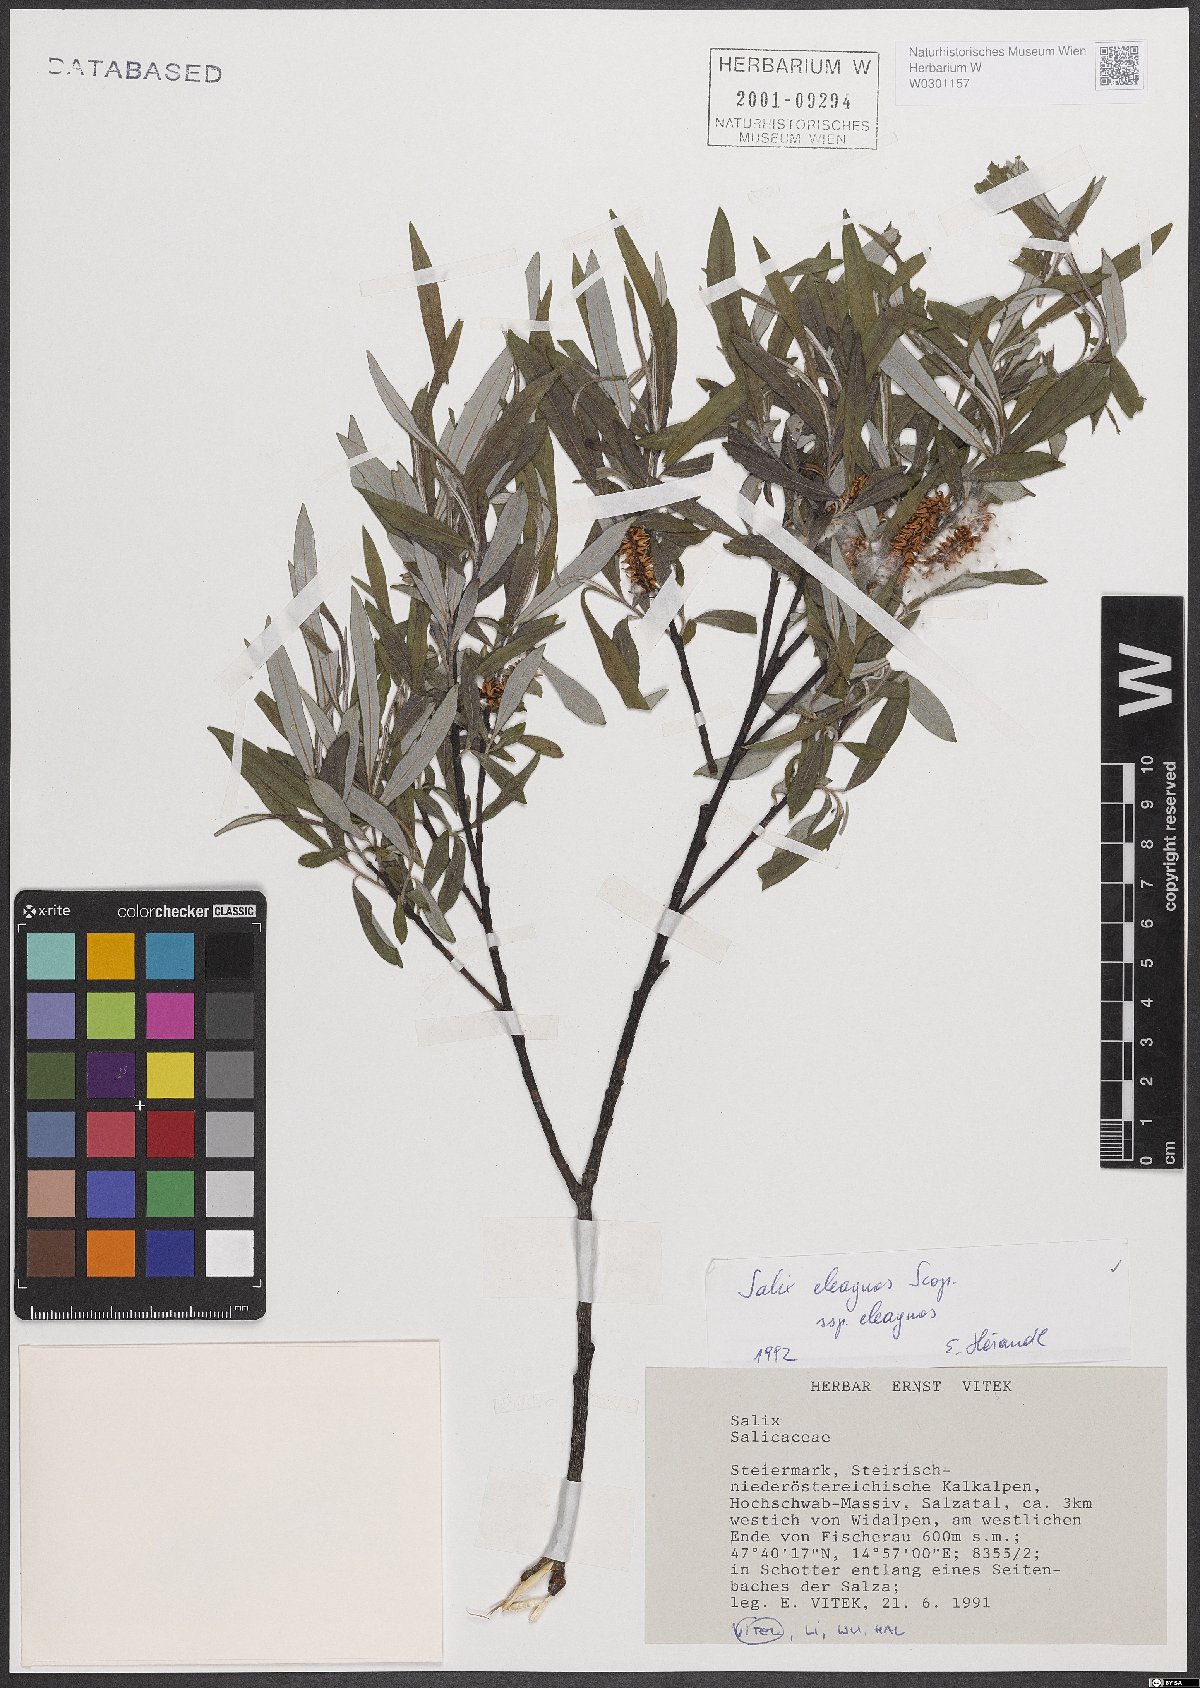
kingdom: Plantae
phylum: Tracheophyta
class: Magnoliopsida
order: Malpighiales
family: Salicaceae
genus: Salix
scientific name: Salix eleagnos
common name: Elaeagnus willow
